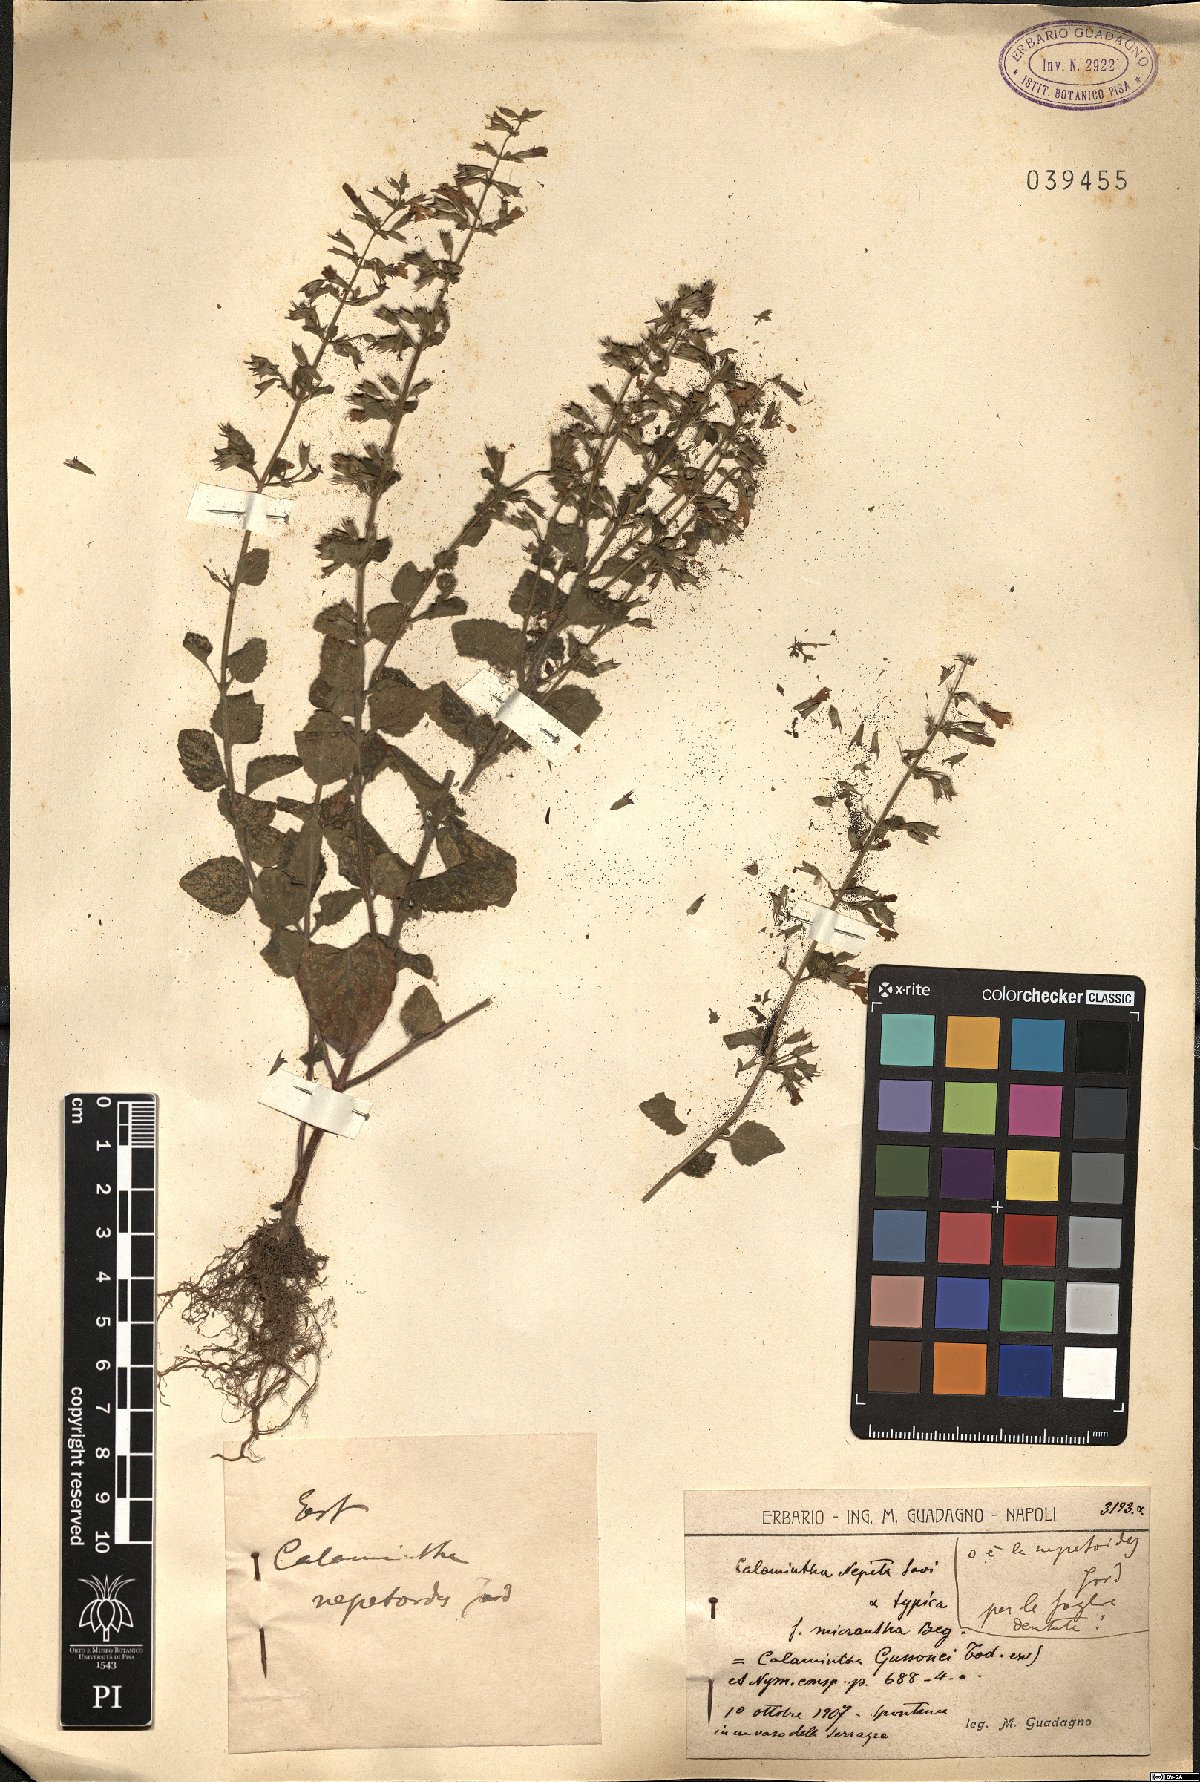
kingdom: Plantae
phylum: Tracheophyta
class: Magnoliopsida
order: Lamiales
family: Lamiaceae
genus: Clinopodium
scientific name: Clinopodium nepeta
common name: Lesser calamint
